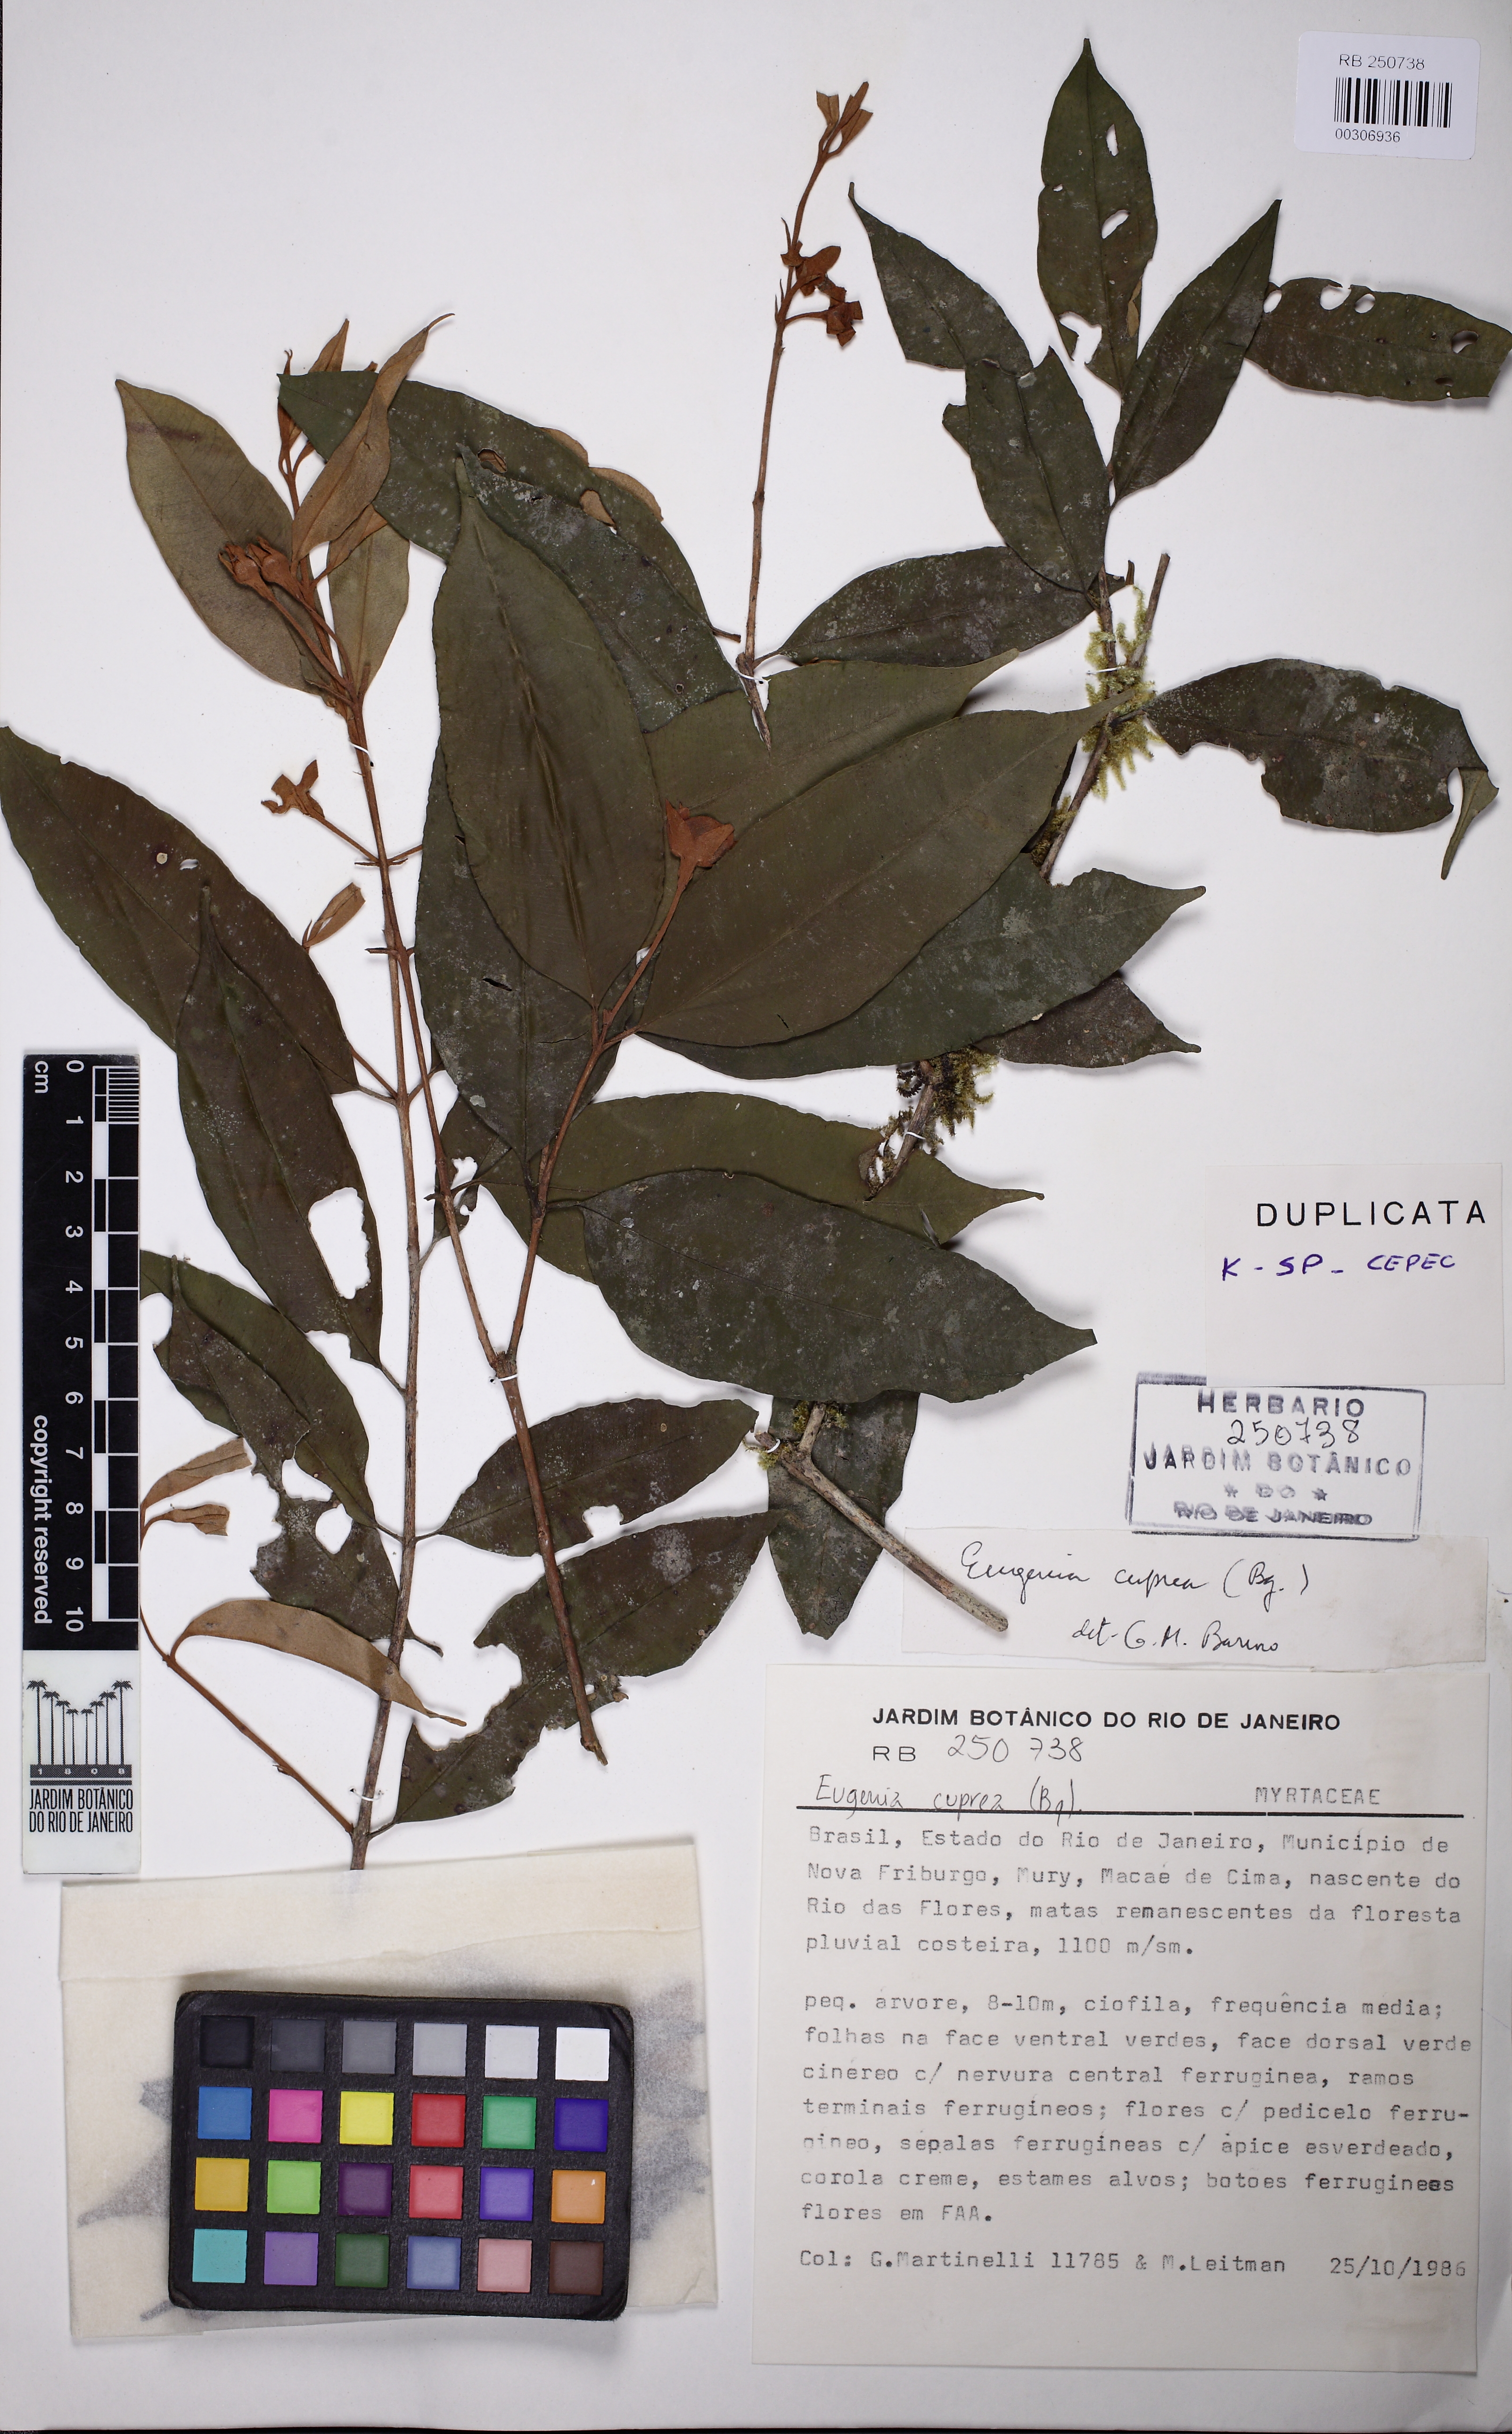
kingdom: Plantae
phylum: Tracheophyta
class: Magnoliopsida
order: Myrtales
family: Myrtaceae
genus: Eugenia
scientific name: Eugenia cuprea
